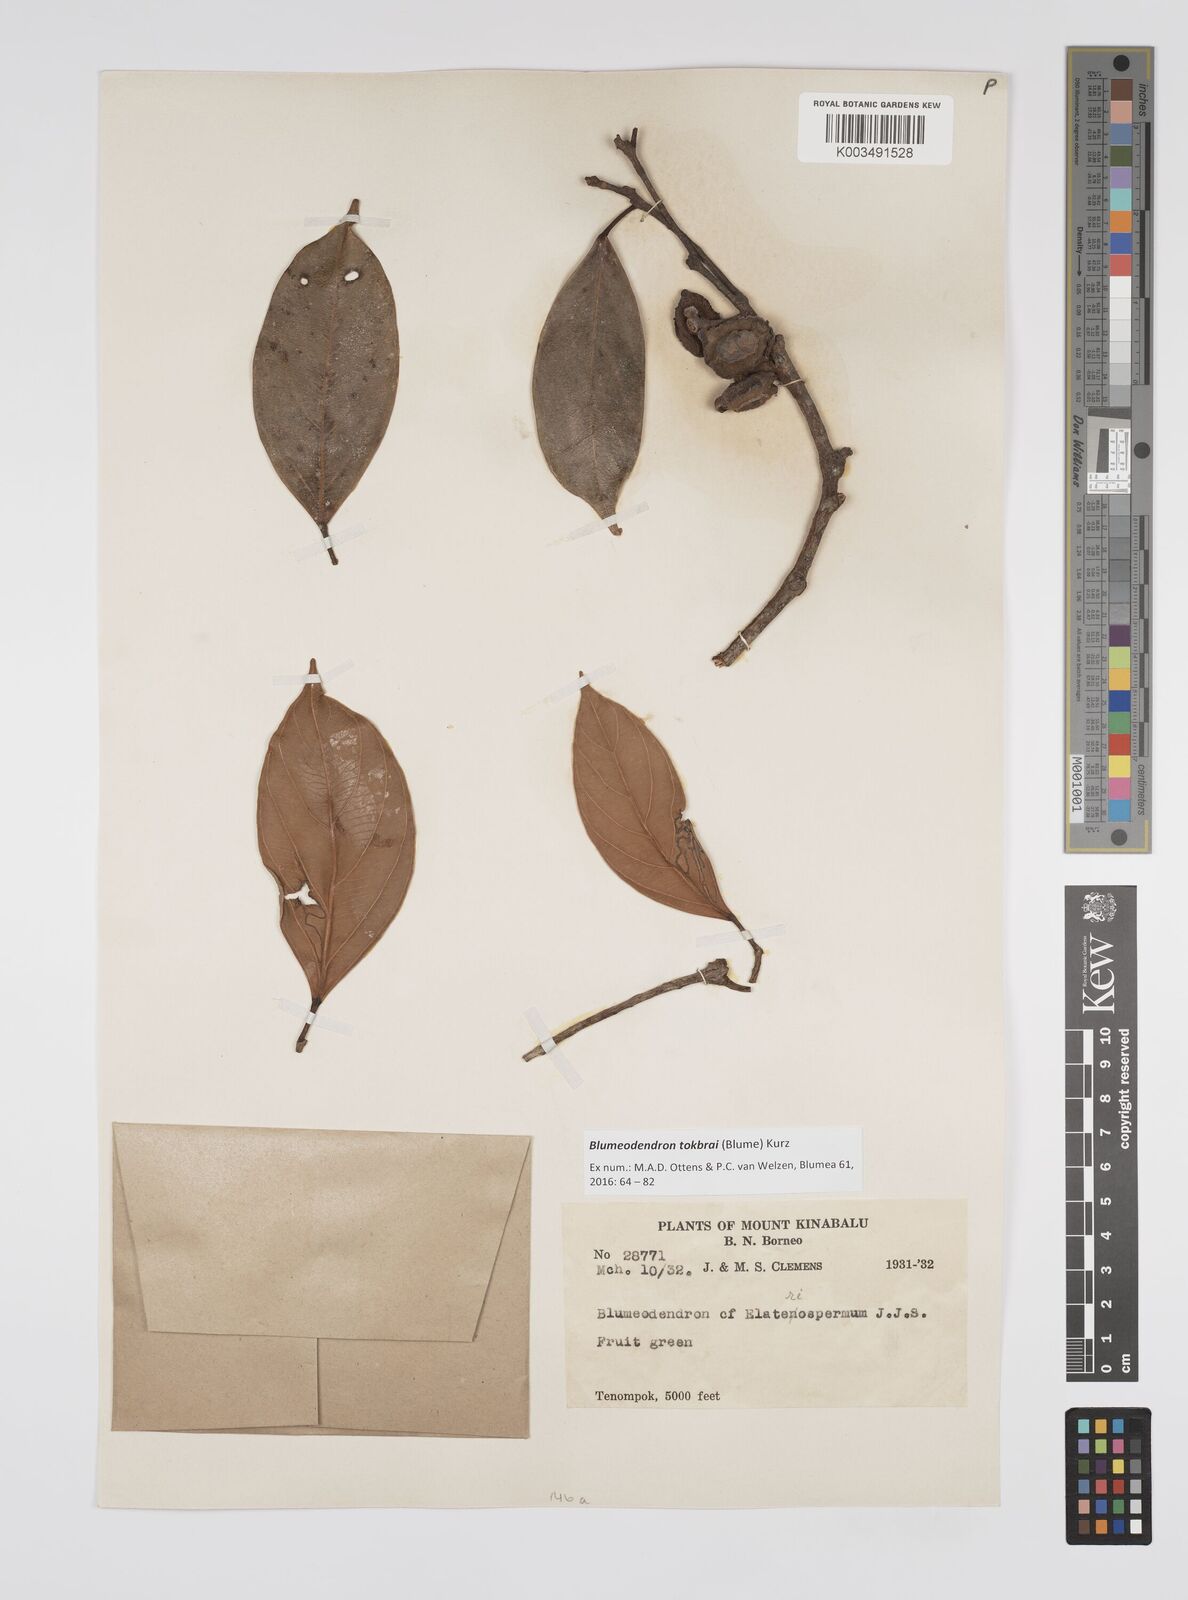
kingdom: Plantae
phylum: Tracheophyta
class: Magnoliopsida
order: Malpighiales
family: Euphorbiaceae
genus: Blumeodendron
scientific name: Blumeodendron tokbrai
